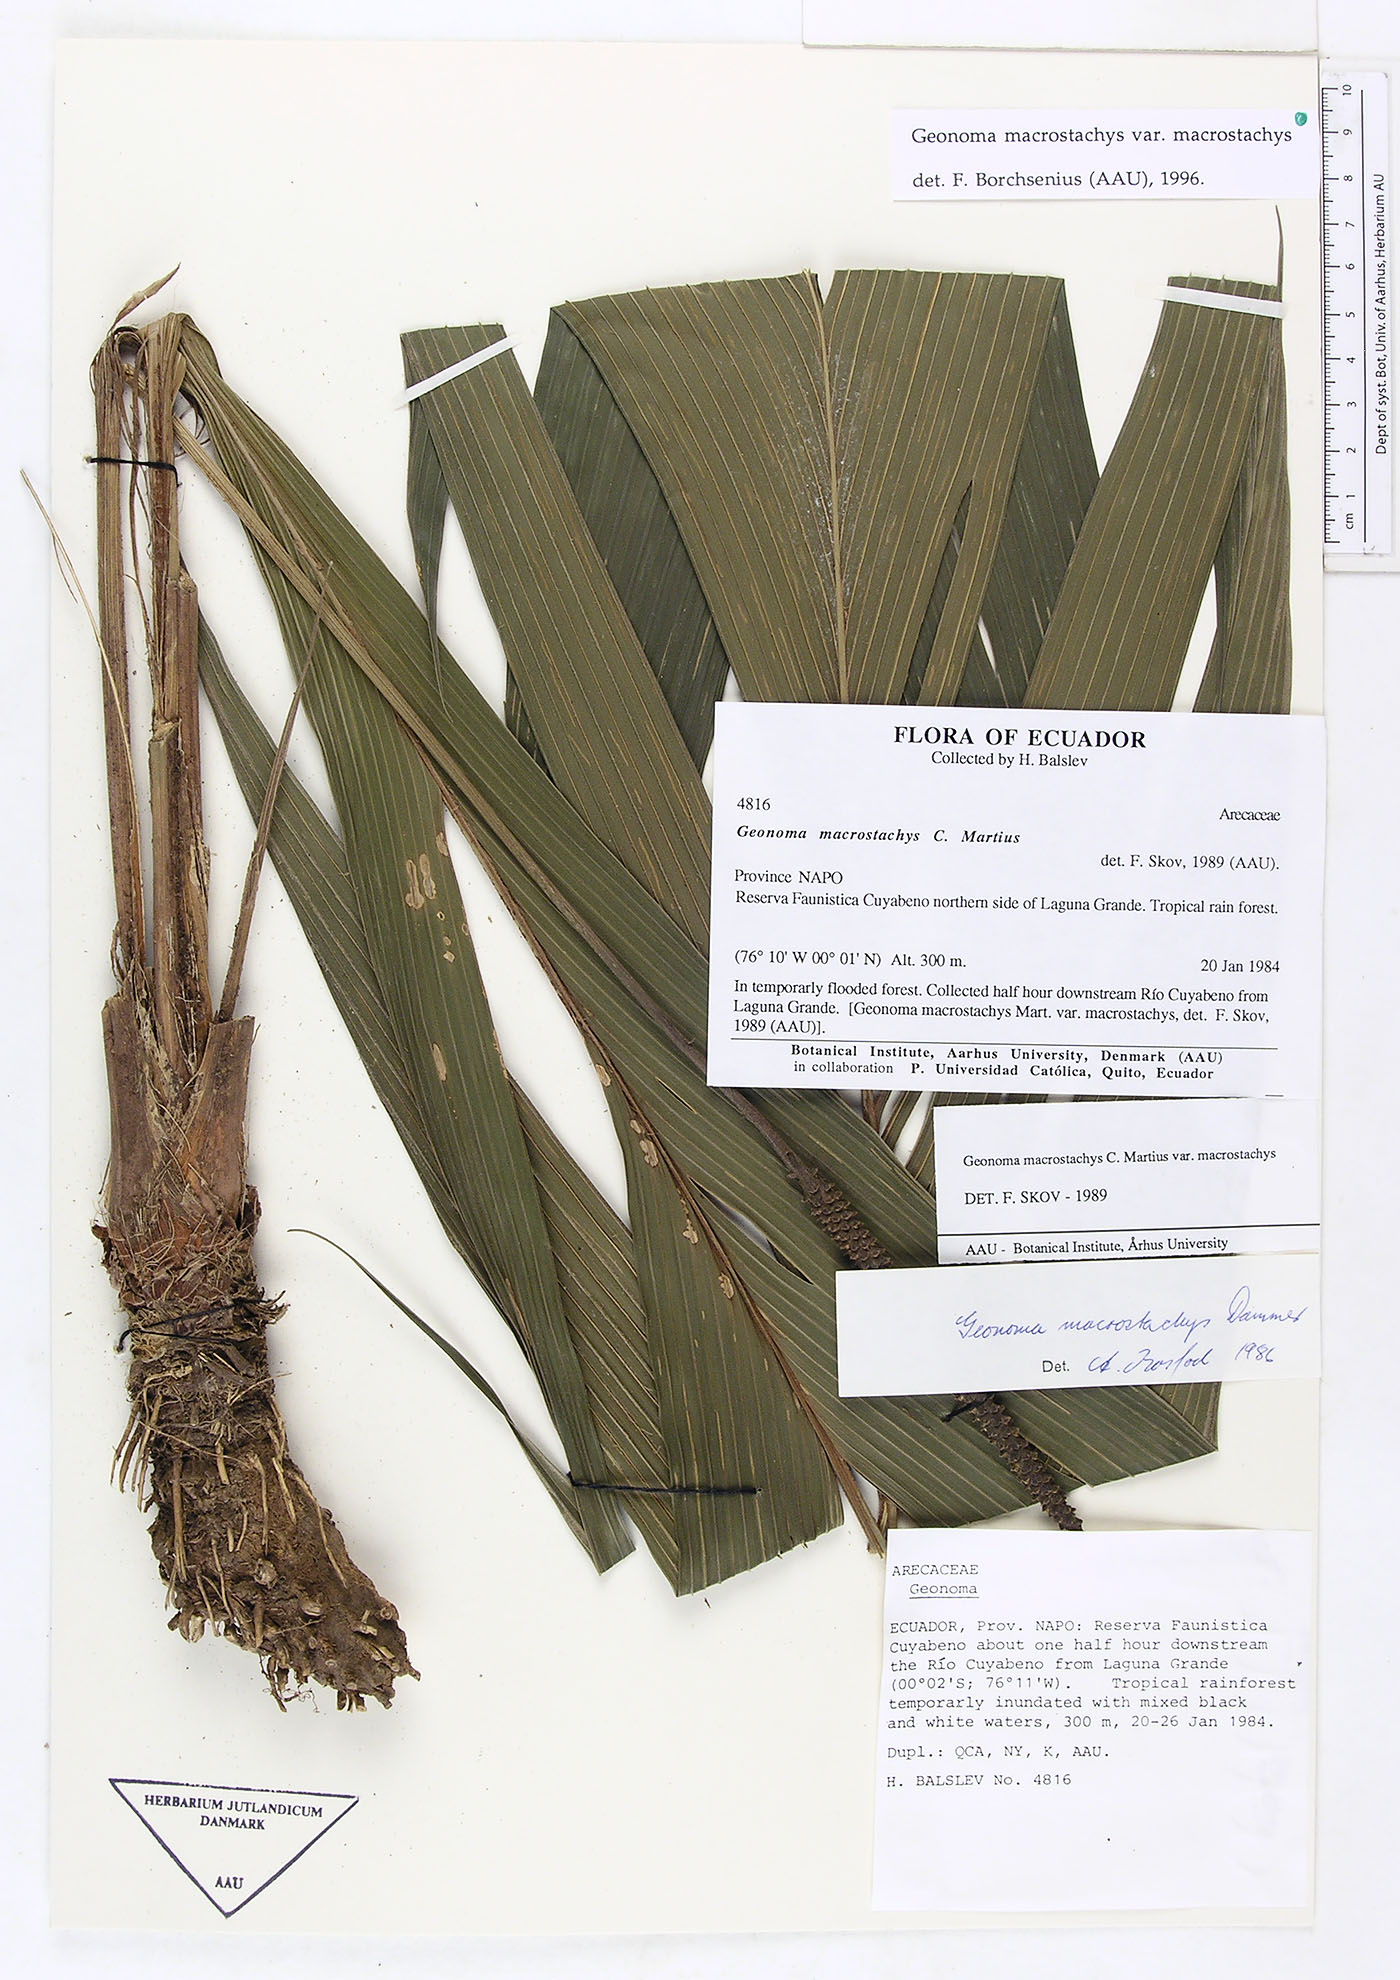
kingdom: Plantae
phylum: Tracheophyta
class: Liliopsida
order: Arecales
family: Arecaceae
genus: Geonoma
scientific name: Geonoma macrostachys
